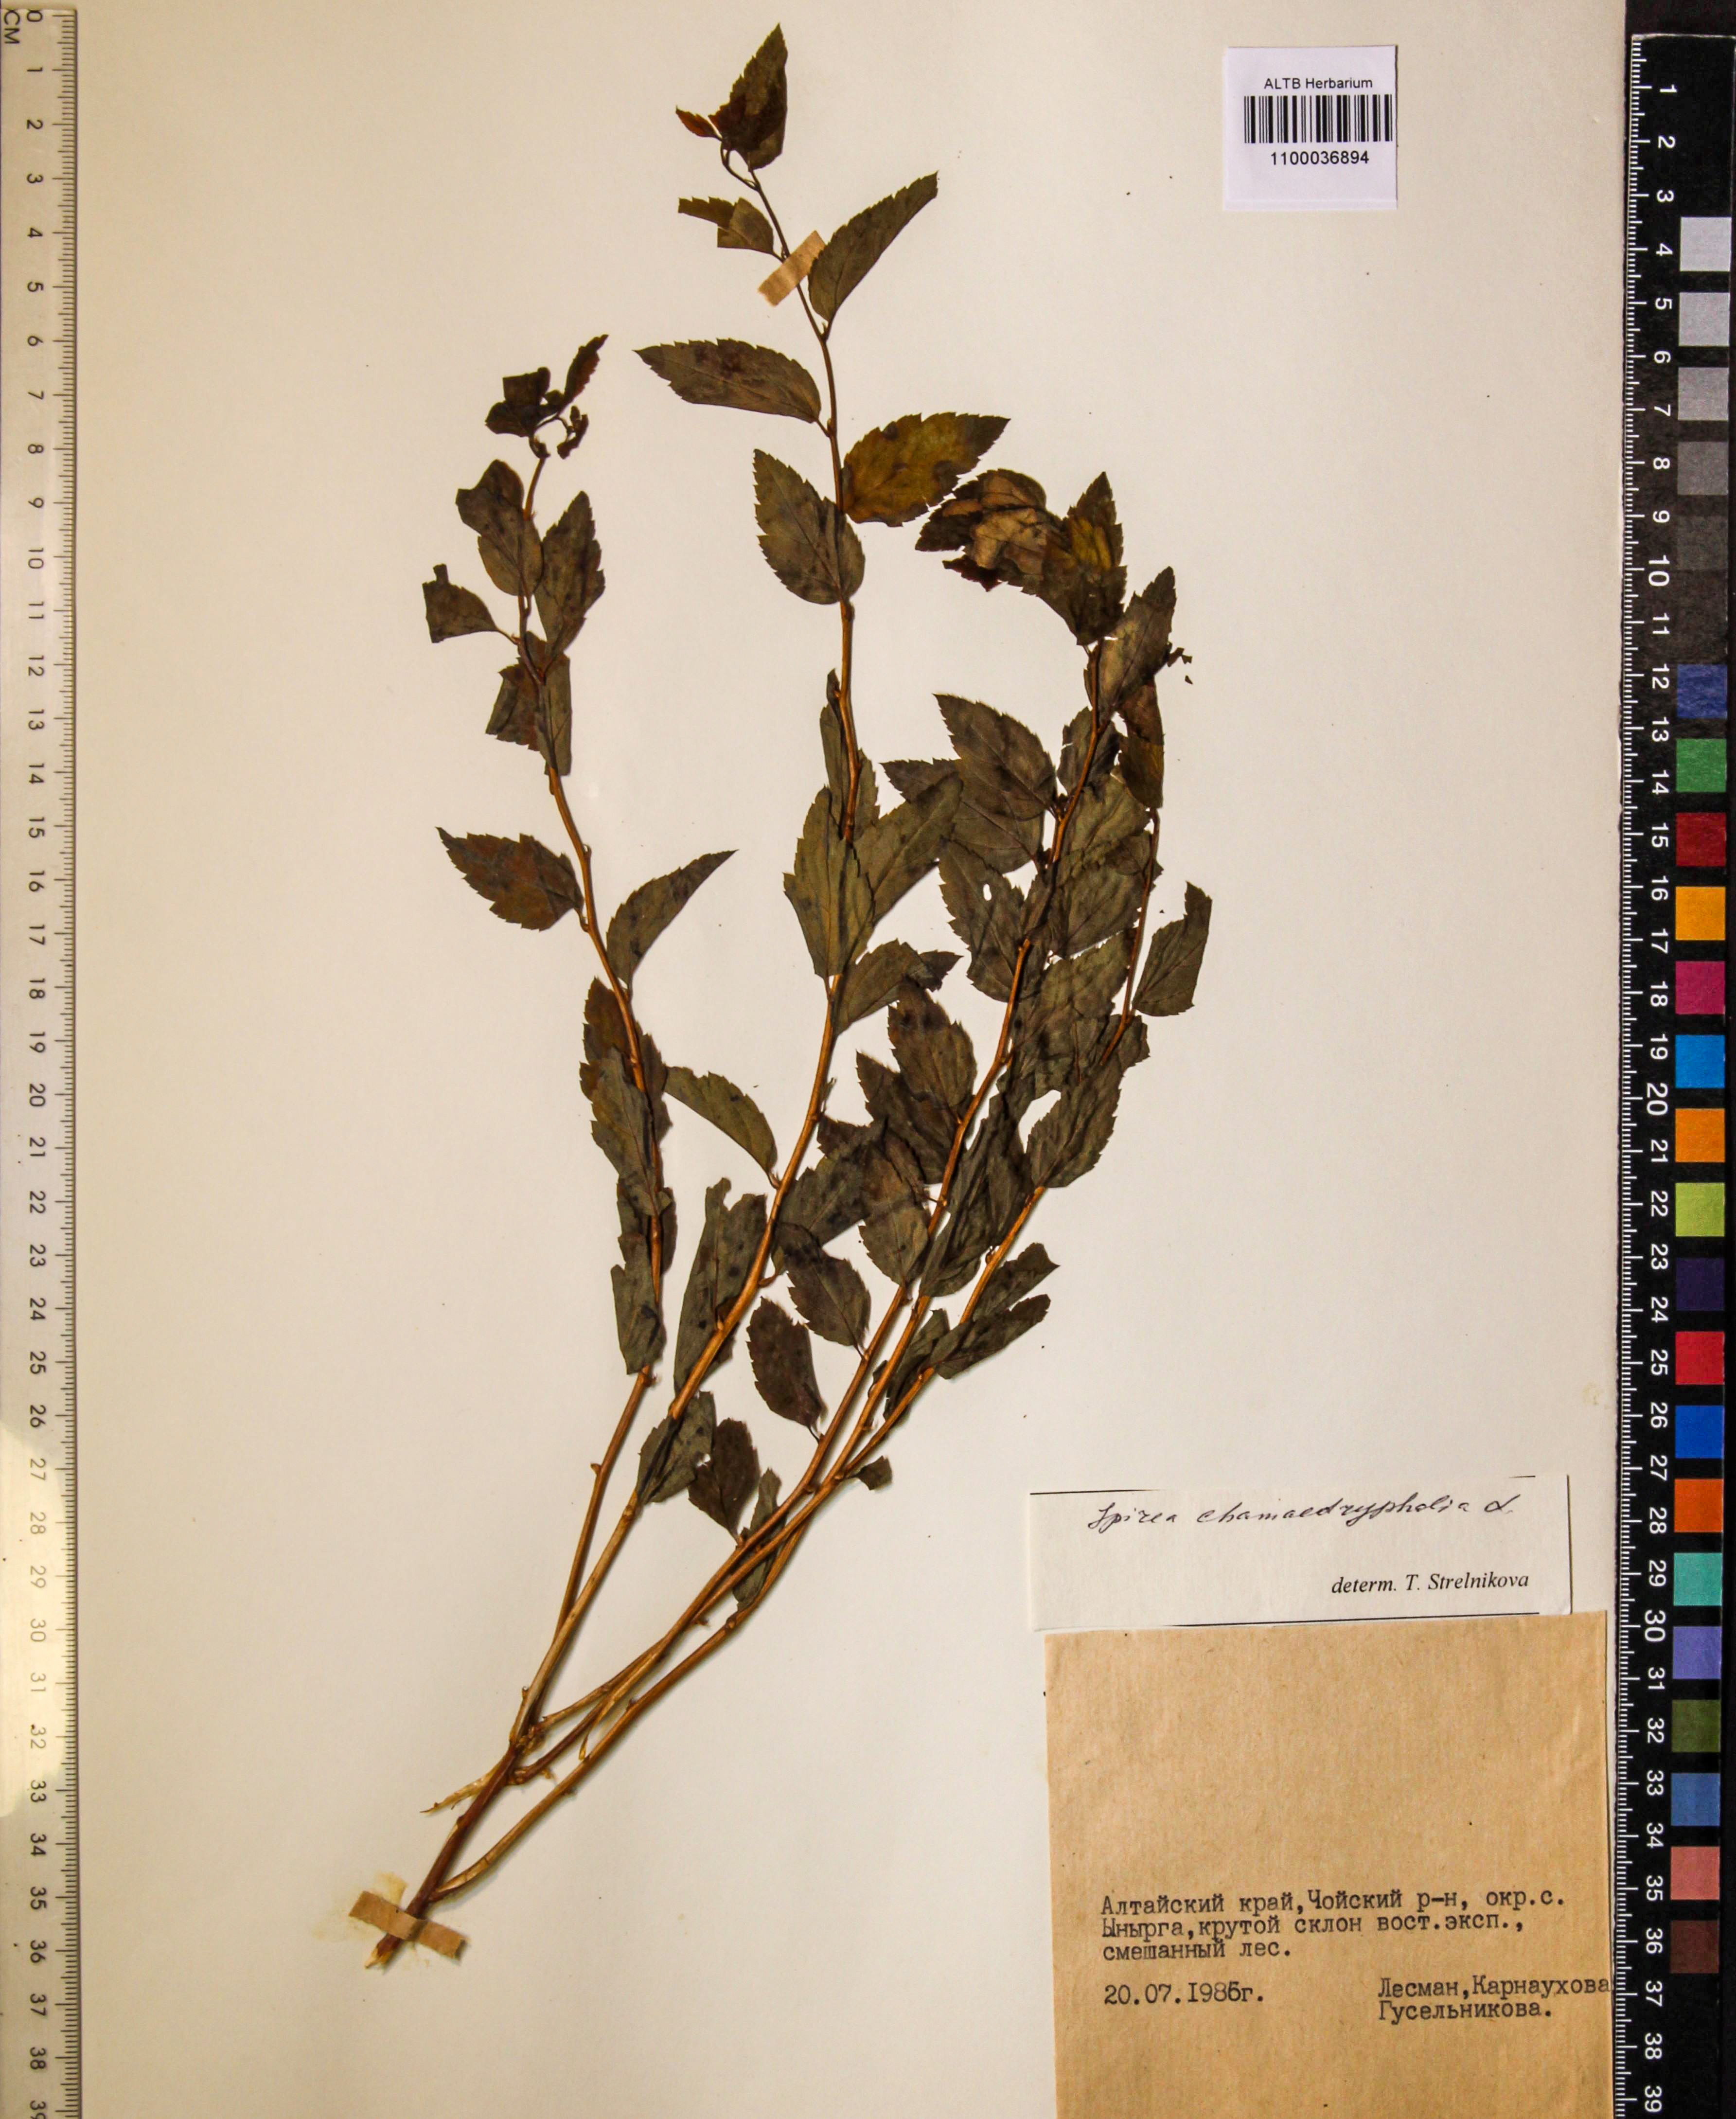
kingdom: Plantae
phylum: Tracheophyta
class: Magnoliopsida
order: Rosales
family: Rosaceae
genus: Spiraea
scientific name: Spiraea chamaedryfolia
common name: Elm-leaved spiraea
